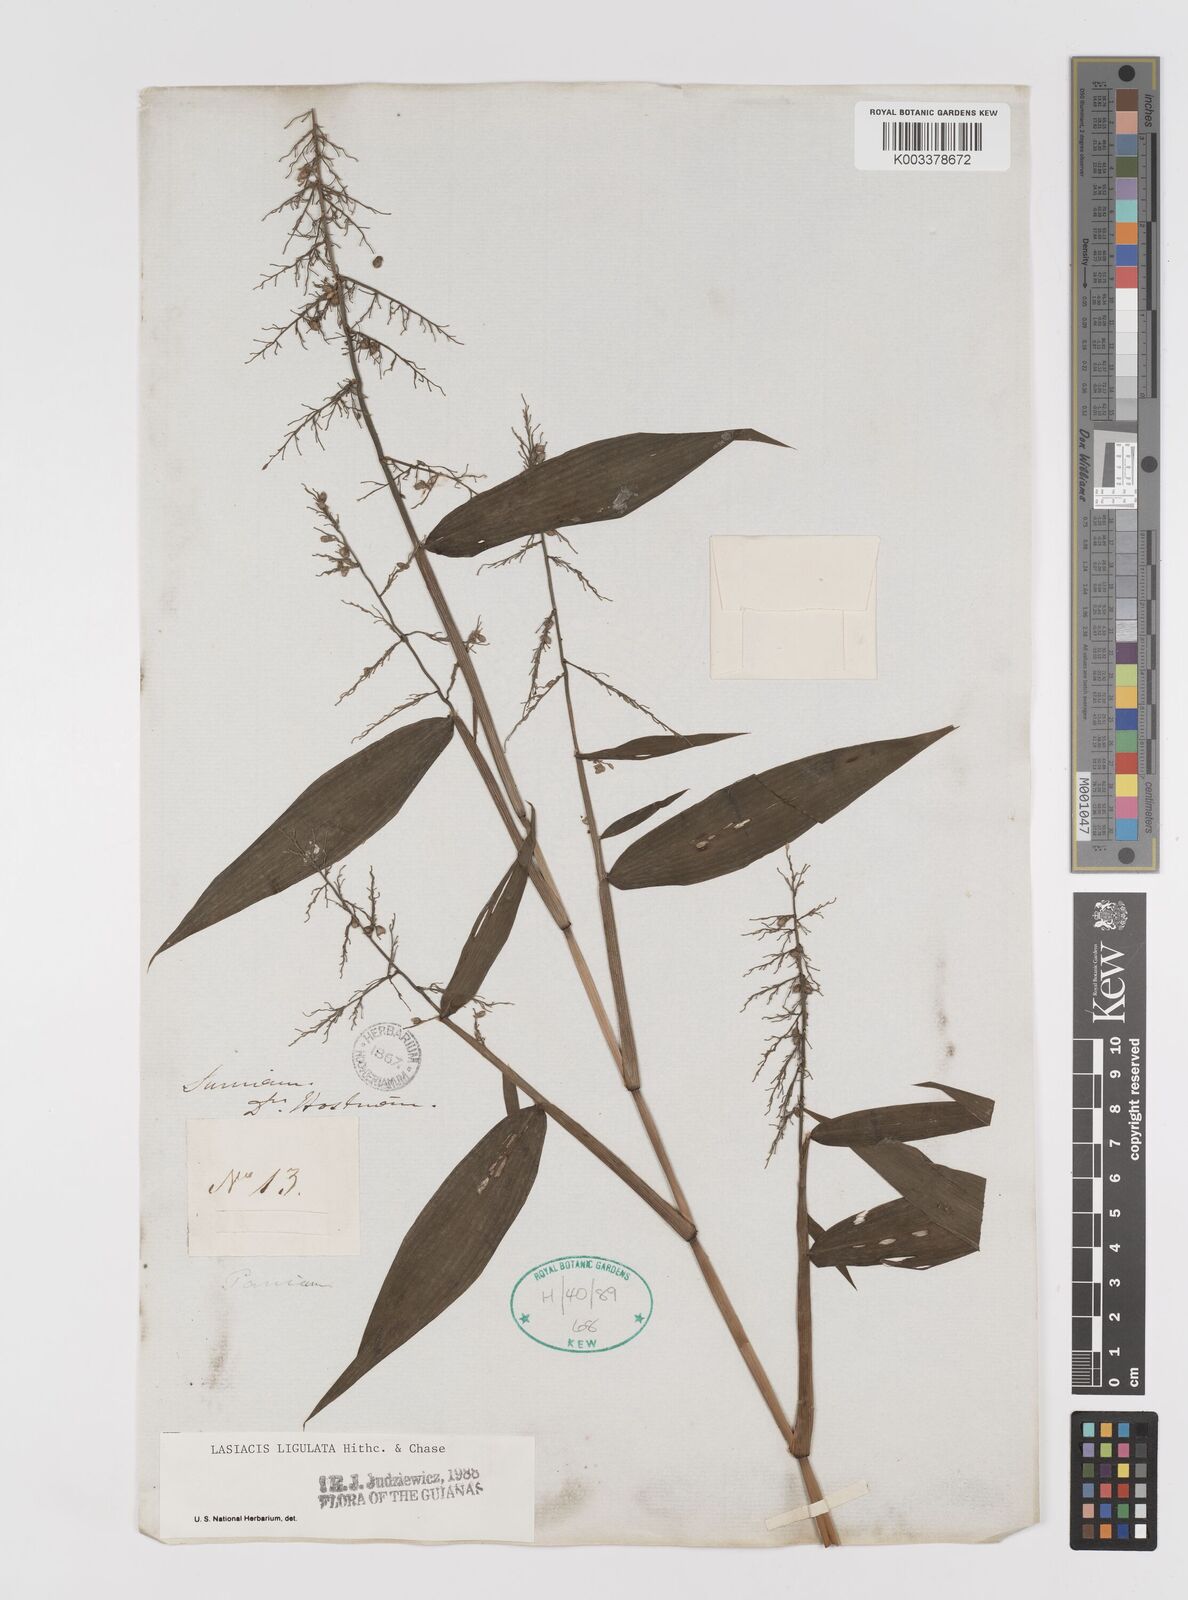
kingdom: Plantae
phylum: Tracheophyta
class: Liliopsida
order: Poales
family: Poaceae
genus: Lasiacis
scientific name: Lasiacis ligulata
